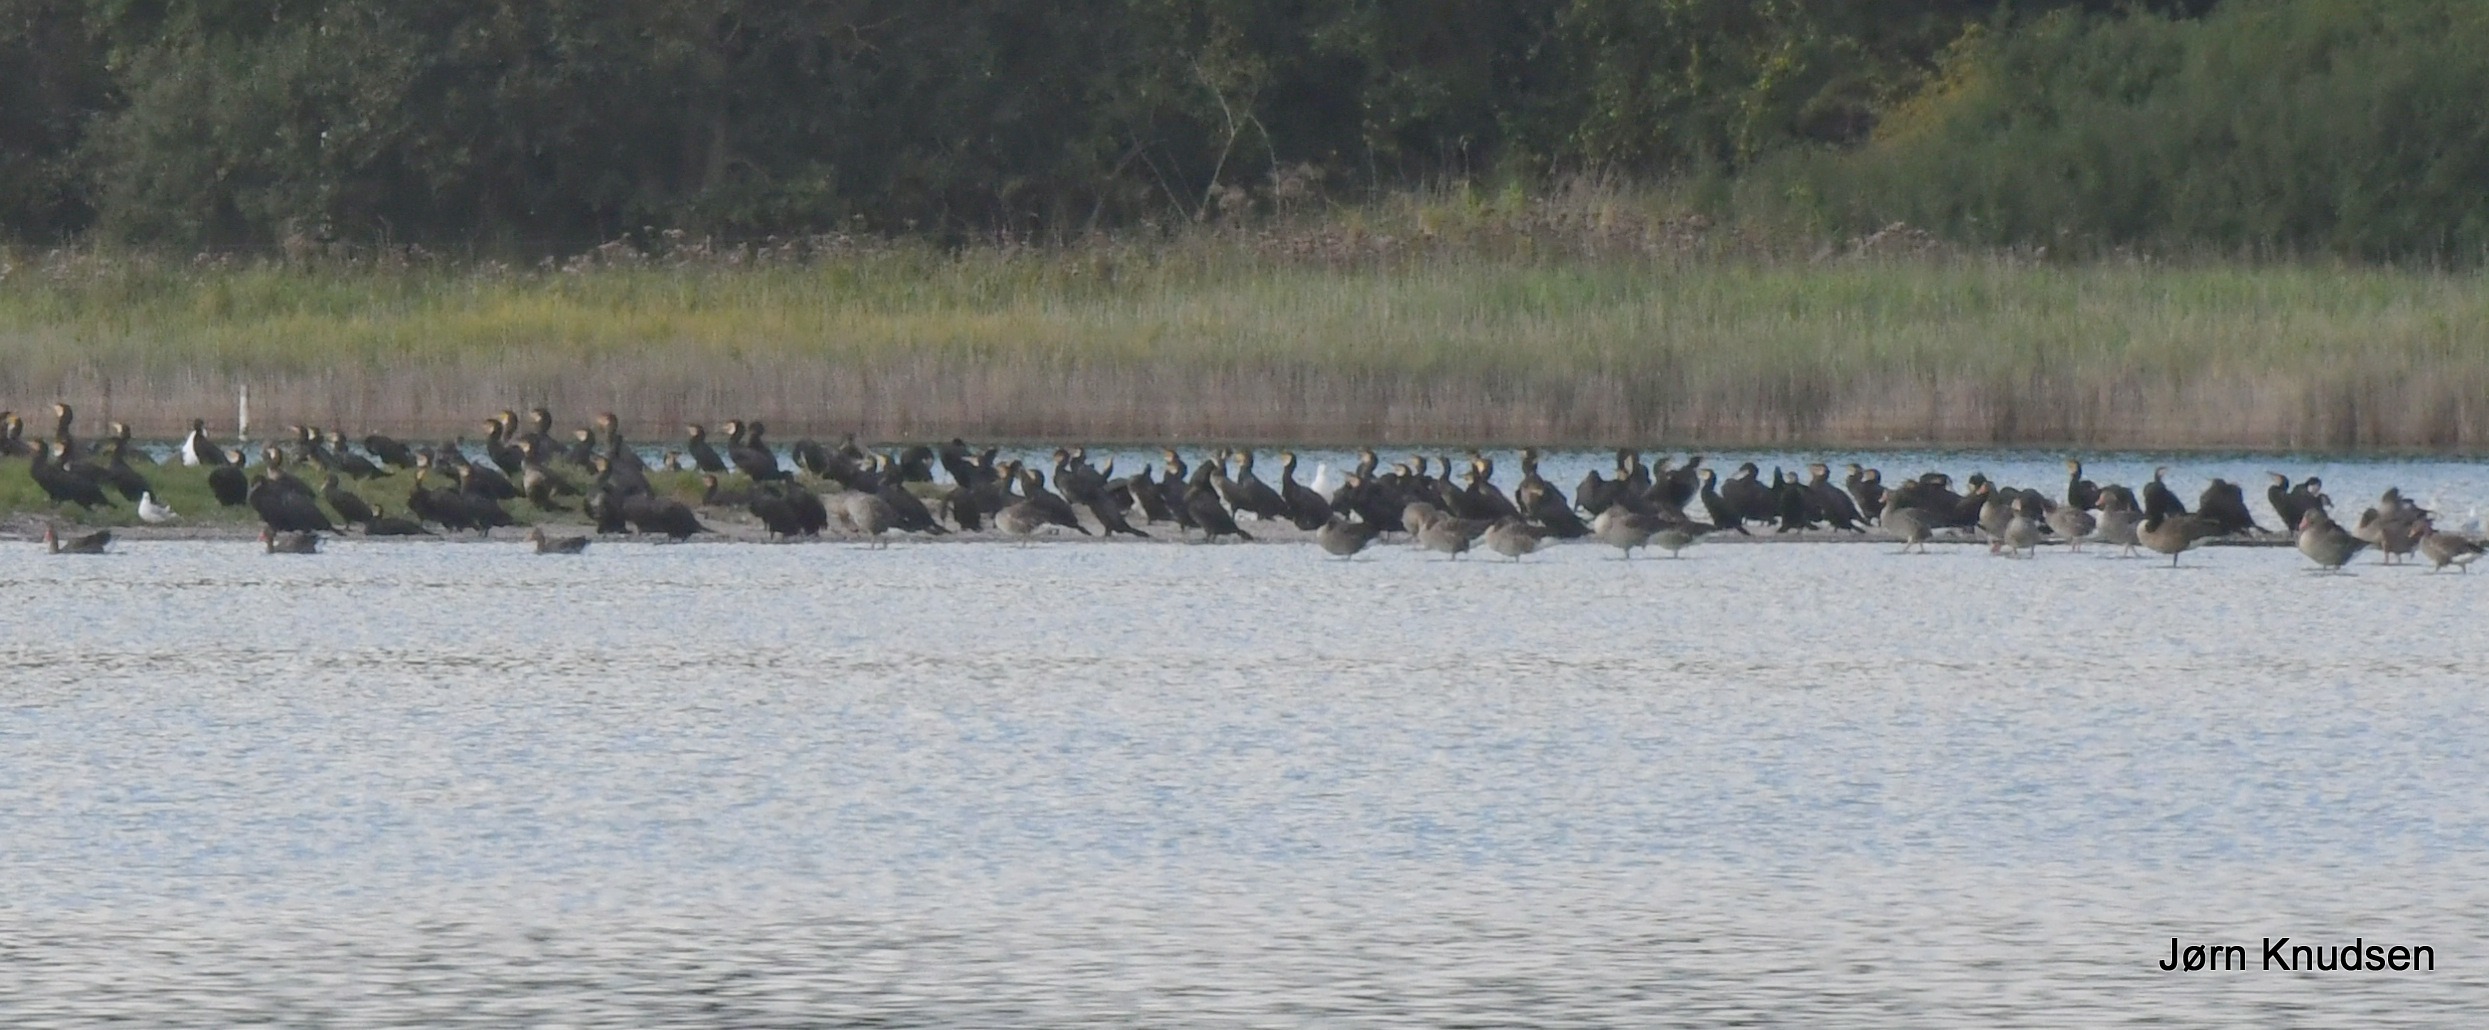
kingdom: Animalia
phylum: Chordata
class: Aves
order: Suliformes
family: Phalacrocoracidae
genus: Phalacrocorax
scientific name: Phalacrocorax carbo
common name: Skarv
